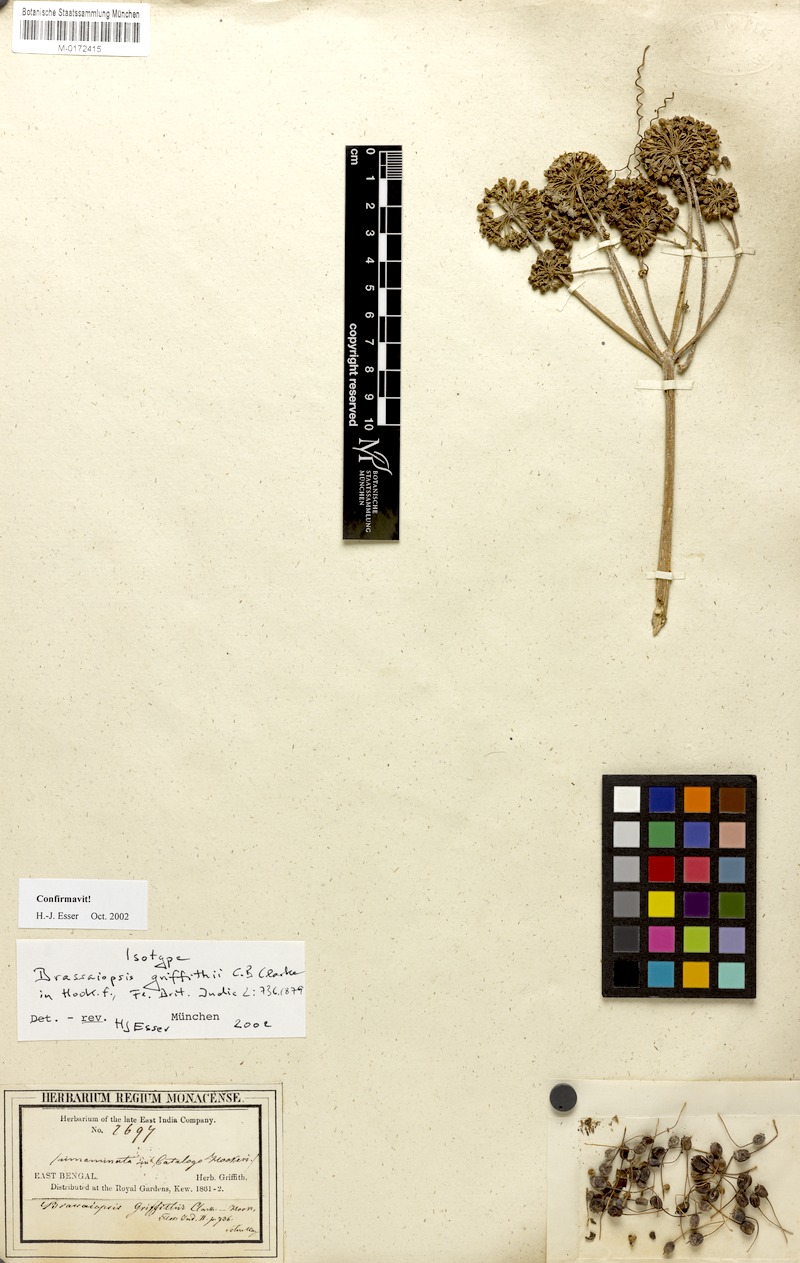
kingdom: Plantae
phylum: Tracheophyta
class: Magnoliopsida
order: Apiales
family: Araliaceae
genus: Brassaiopsis
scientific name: Brassaiopsis griffithii
